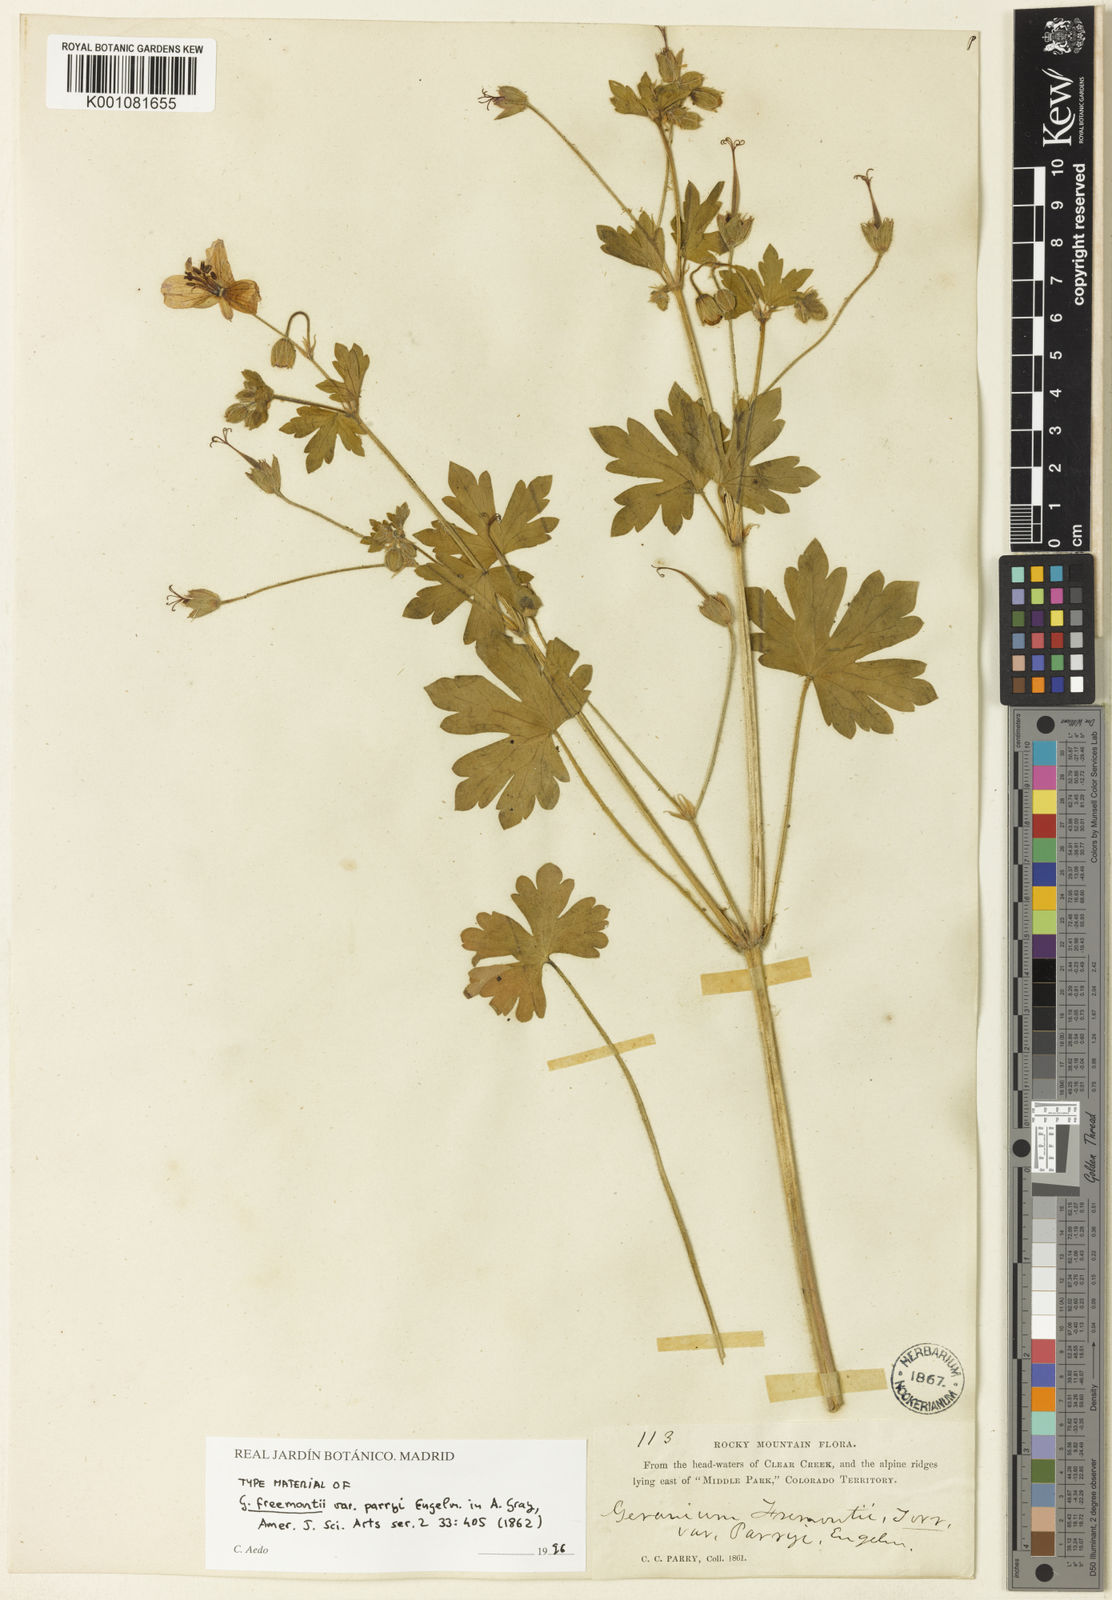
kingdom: Plantae
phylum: Tracheophyta
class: Magnoliopsida
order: Geraniales
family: Geraniaceae
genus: Geranium
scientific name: Geranium caespitosum
